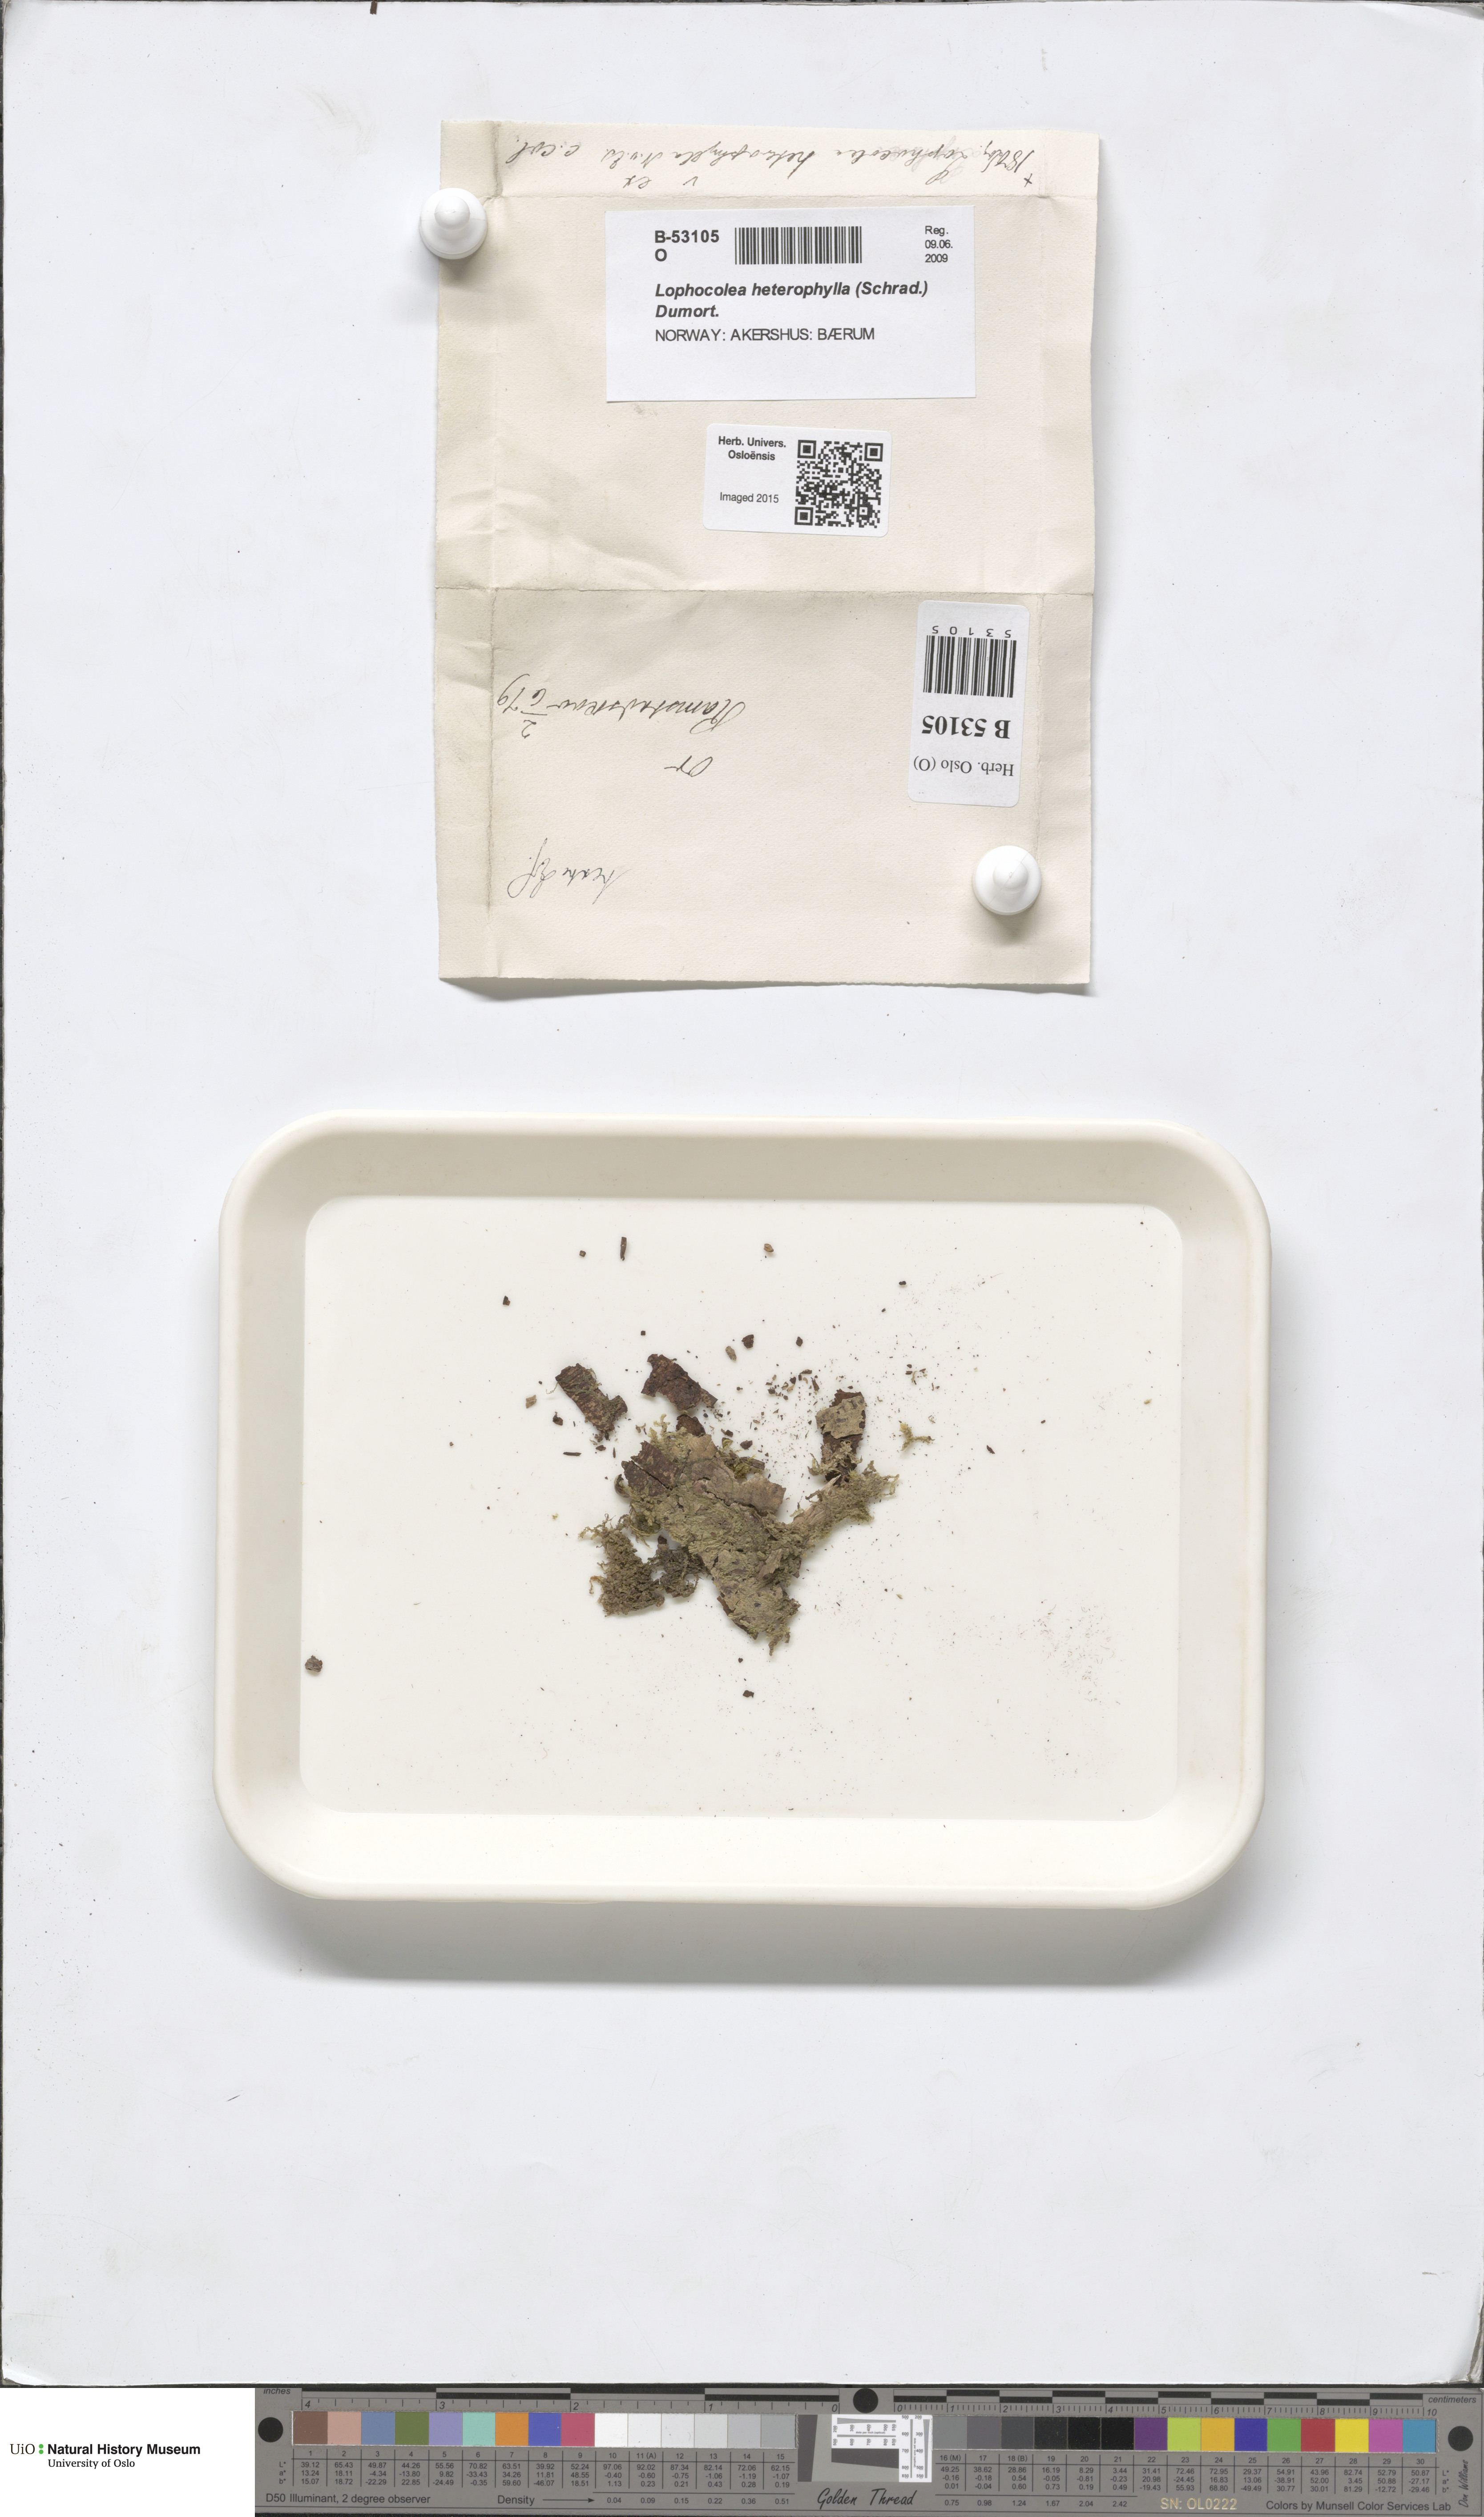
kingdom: Plantae
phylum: Marchantiophyta
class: Jungermanniopsida
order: Jungermanniales
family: Lophocoleaceae
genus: Lophocolea
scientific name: Lophocolea heterophylla
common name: Variable-leaved crestwort
